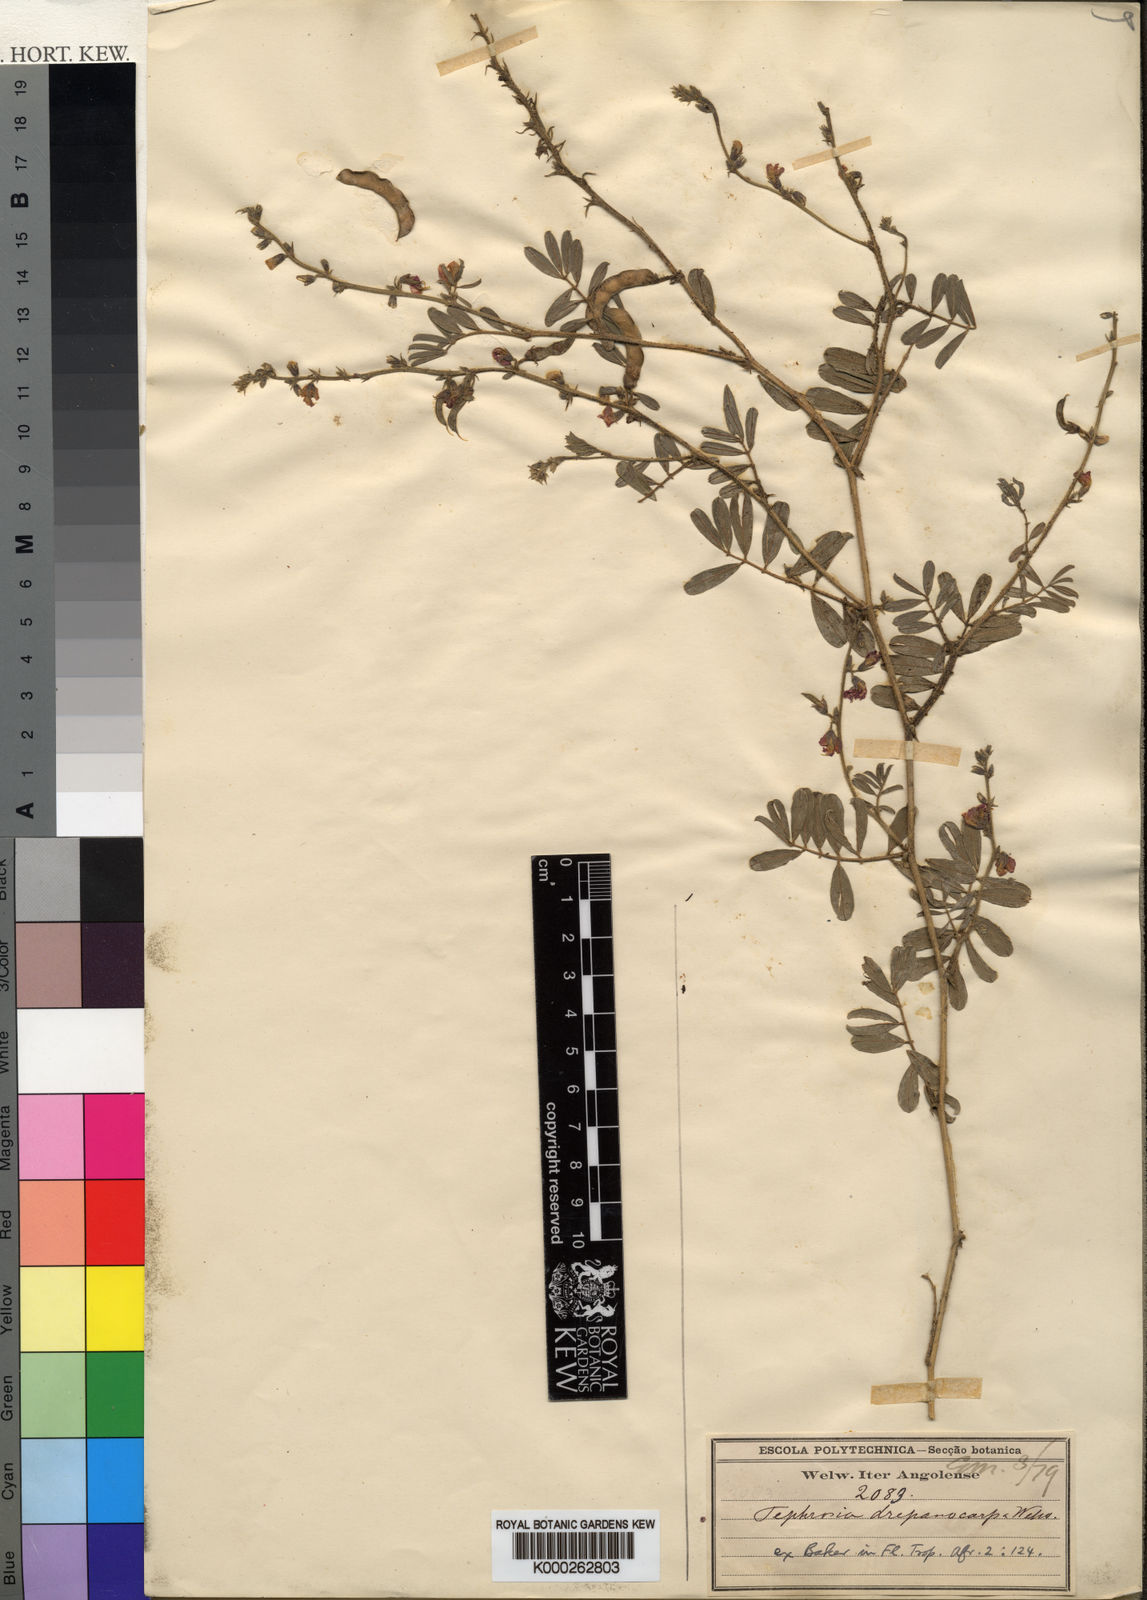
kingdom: Plantae
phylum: Tracheophyta
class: Magnoliopsida
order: Fabales
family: Fabaceae
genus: Tephrosia
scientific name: Tephrosia
